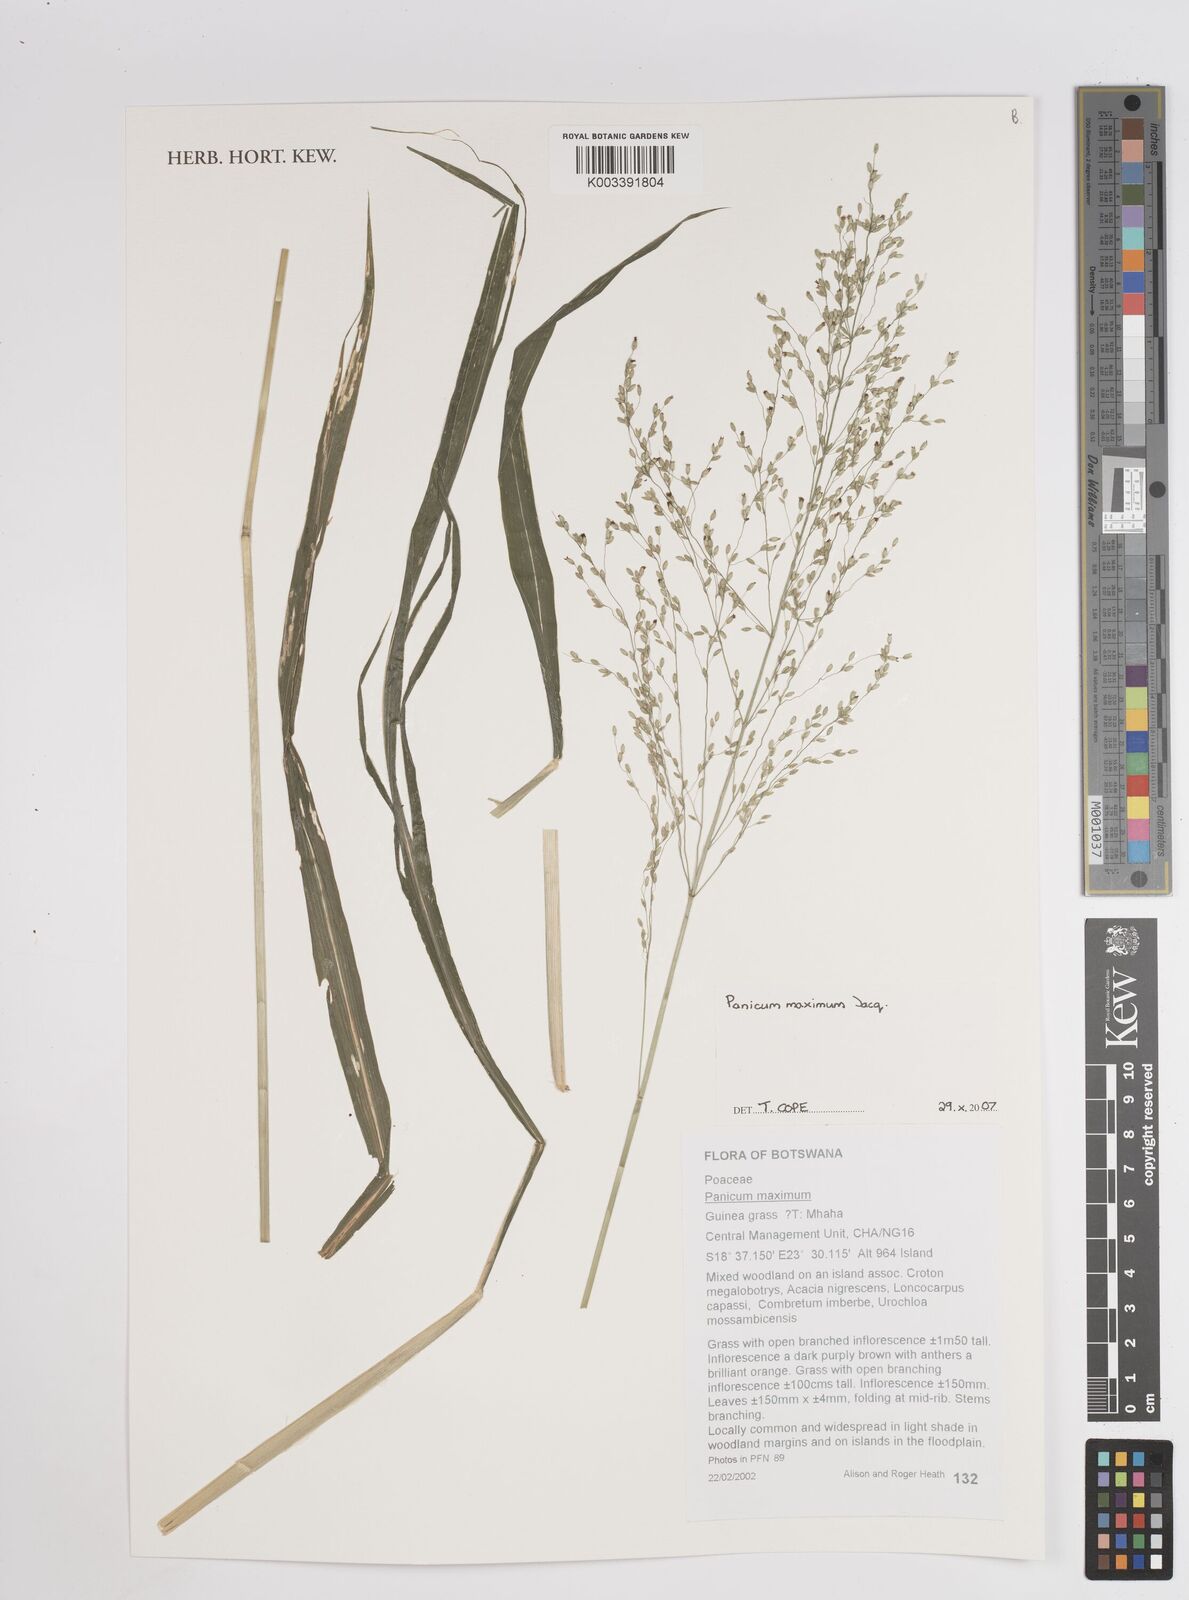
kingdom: Plantae
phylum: Tracheophyta
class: Liliopsida
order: Poales
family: Poaceae
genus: Megathyrsus
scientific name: Megathyrsus maximus
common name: Guineagrass
